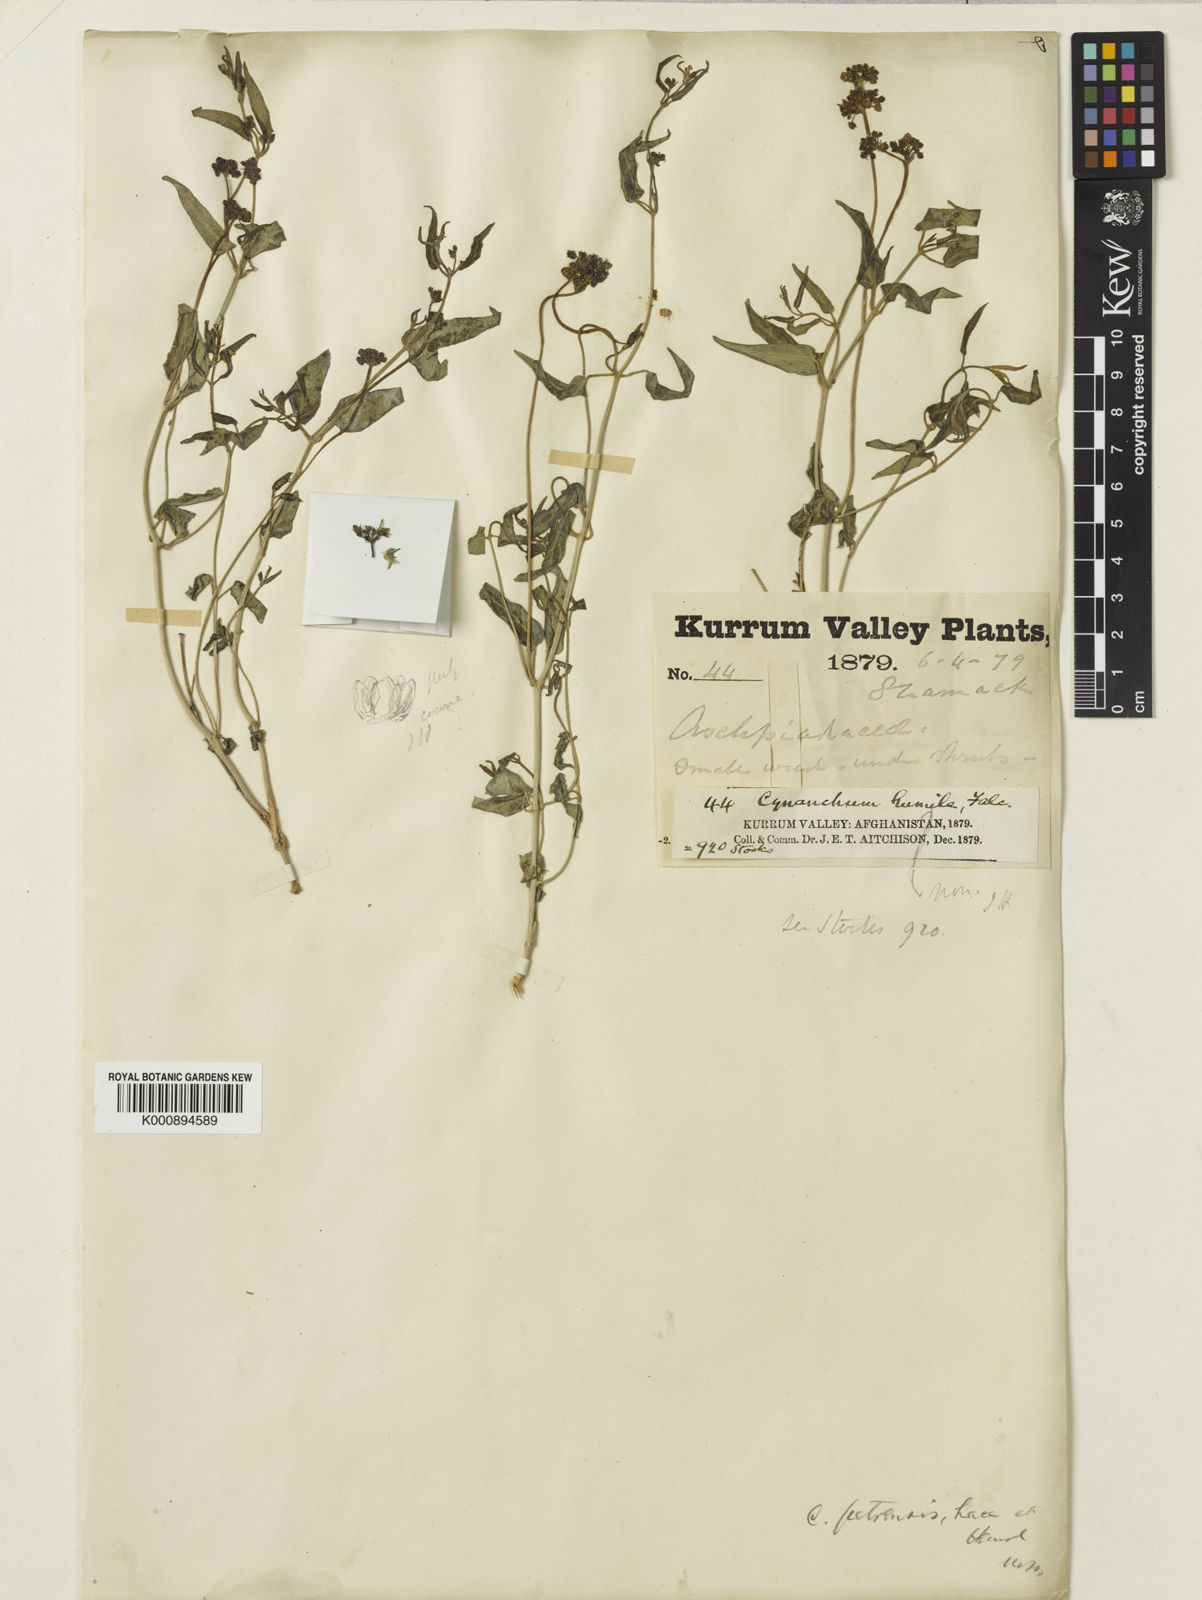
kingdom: Plantae
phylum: Tracheophyta
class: Magnoliopsida
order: Gentianales
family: Apocynaceae
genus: Vincetoxicum
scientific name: Vincetoxicum petrense
